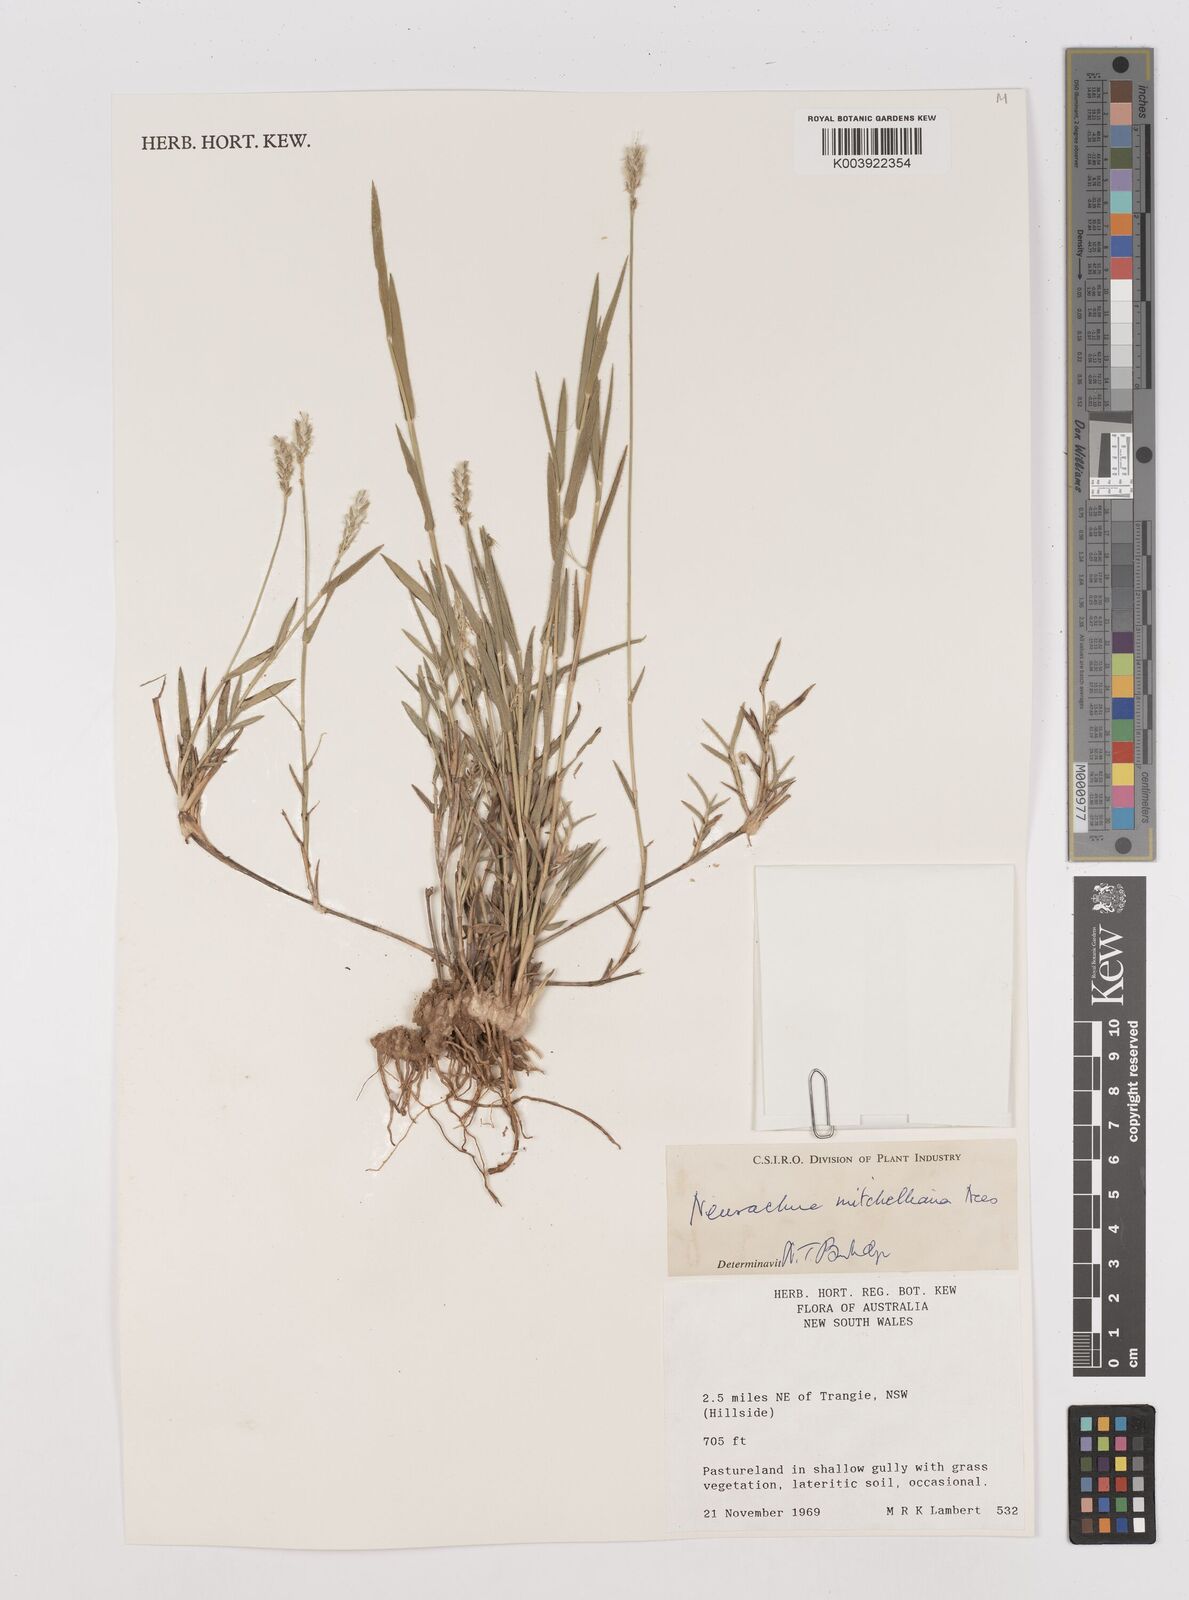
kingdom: Plantae
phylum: Tracheophyta
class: Liliopsida
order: Poales
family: Poaceae
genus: Thyridolepis
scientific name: Thyridolepis mitchelliana
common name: Rock tassel grass
